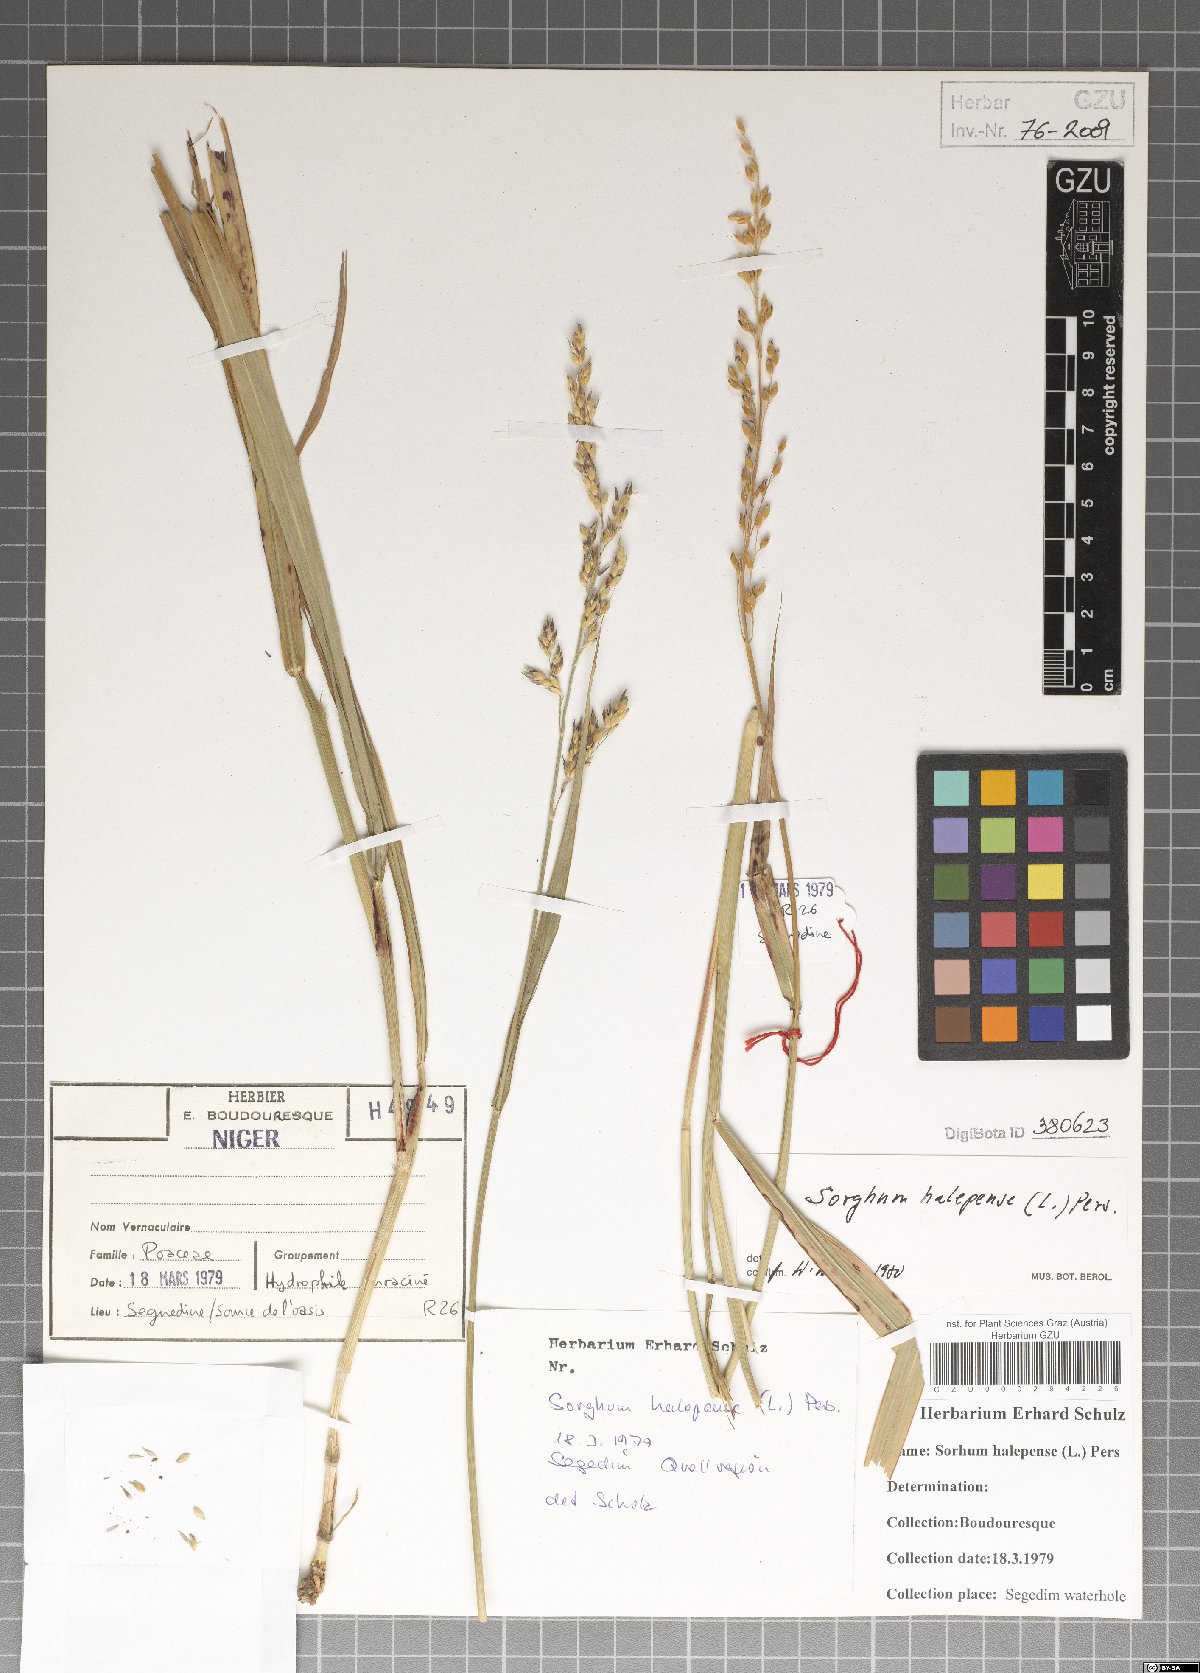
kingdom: Plantae
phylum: Tracheophyta
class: Liliopsida
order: Poales
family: Poaceae
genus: Sorghum
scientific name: Sorghum halepense
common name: Johnson-grass
